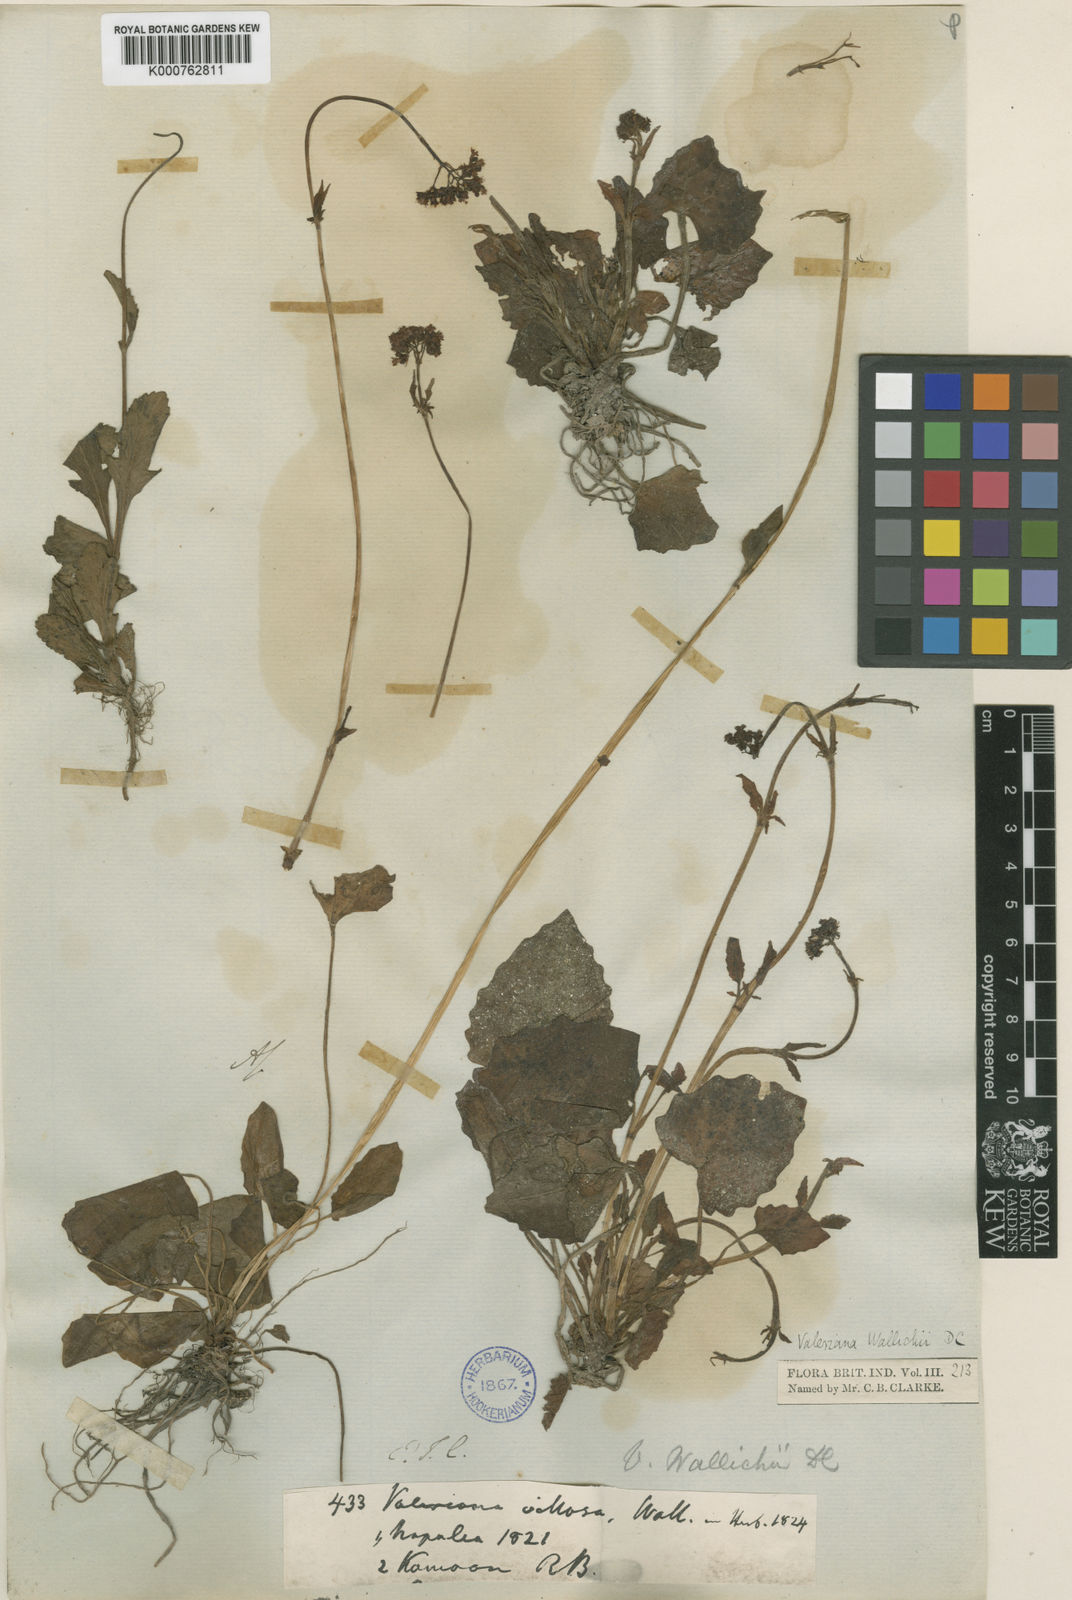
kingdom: Plantae
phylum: Tracheophyta
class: Magnoliopsida
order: Dipsacales
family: Caprifoliaceae
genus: Valeriana
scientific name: Valeriana jatamansi
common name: Indian valerian
